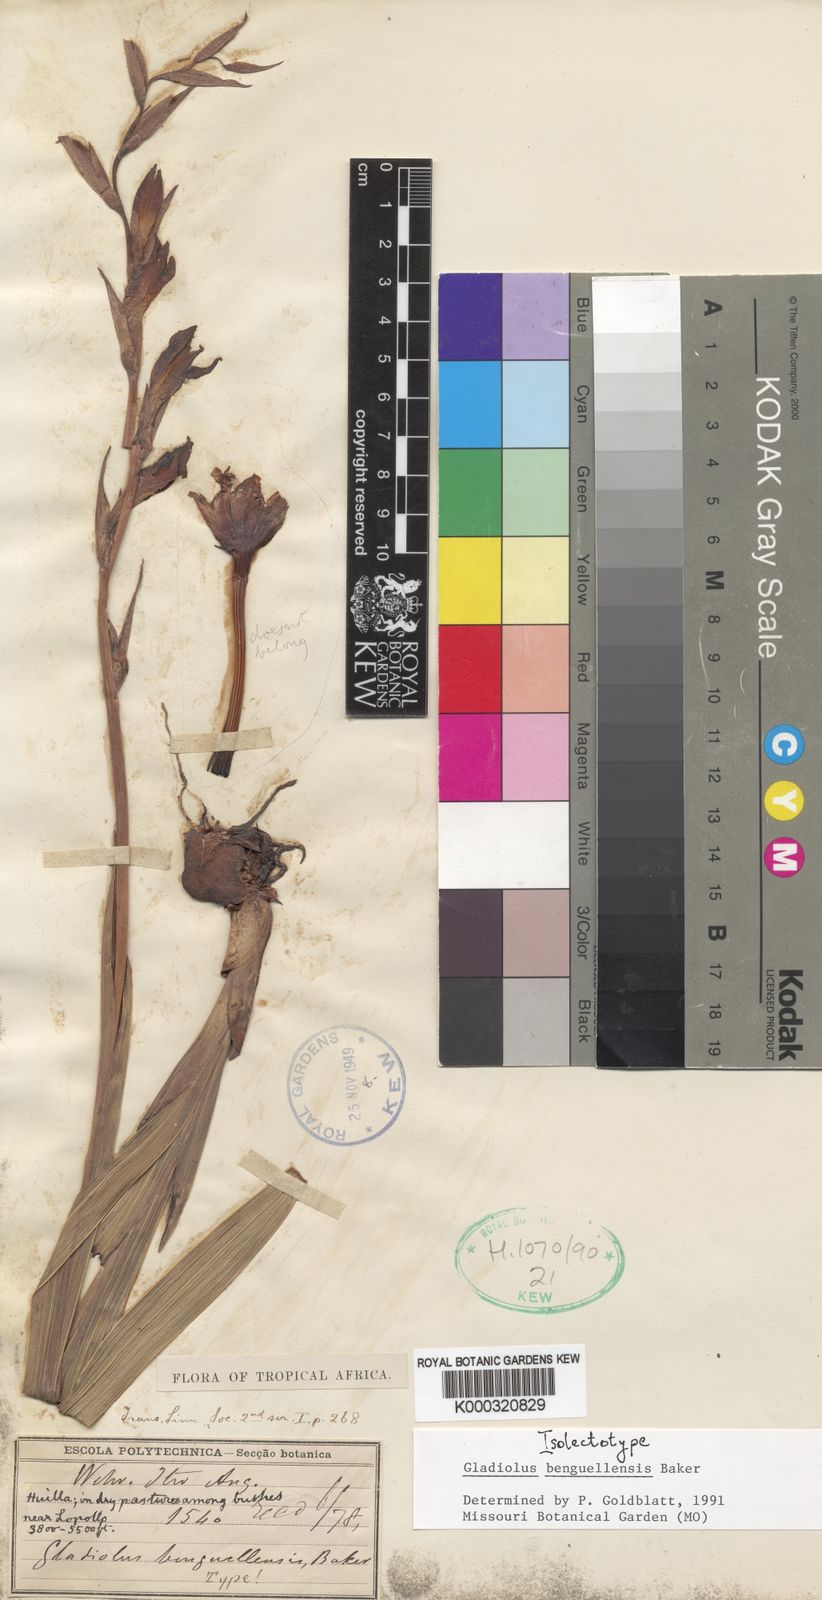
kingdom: Plantae
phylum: Tracheophyta
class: Liliopsida
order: Asparagales
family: Iridaceae
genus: Gladiolus
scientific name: Gladiolus benguellensis
